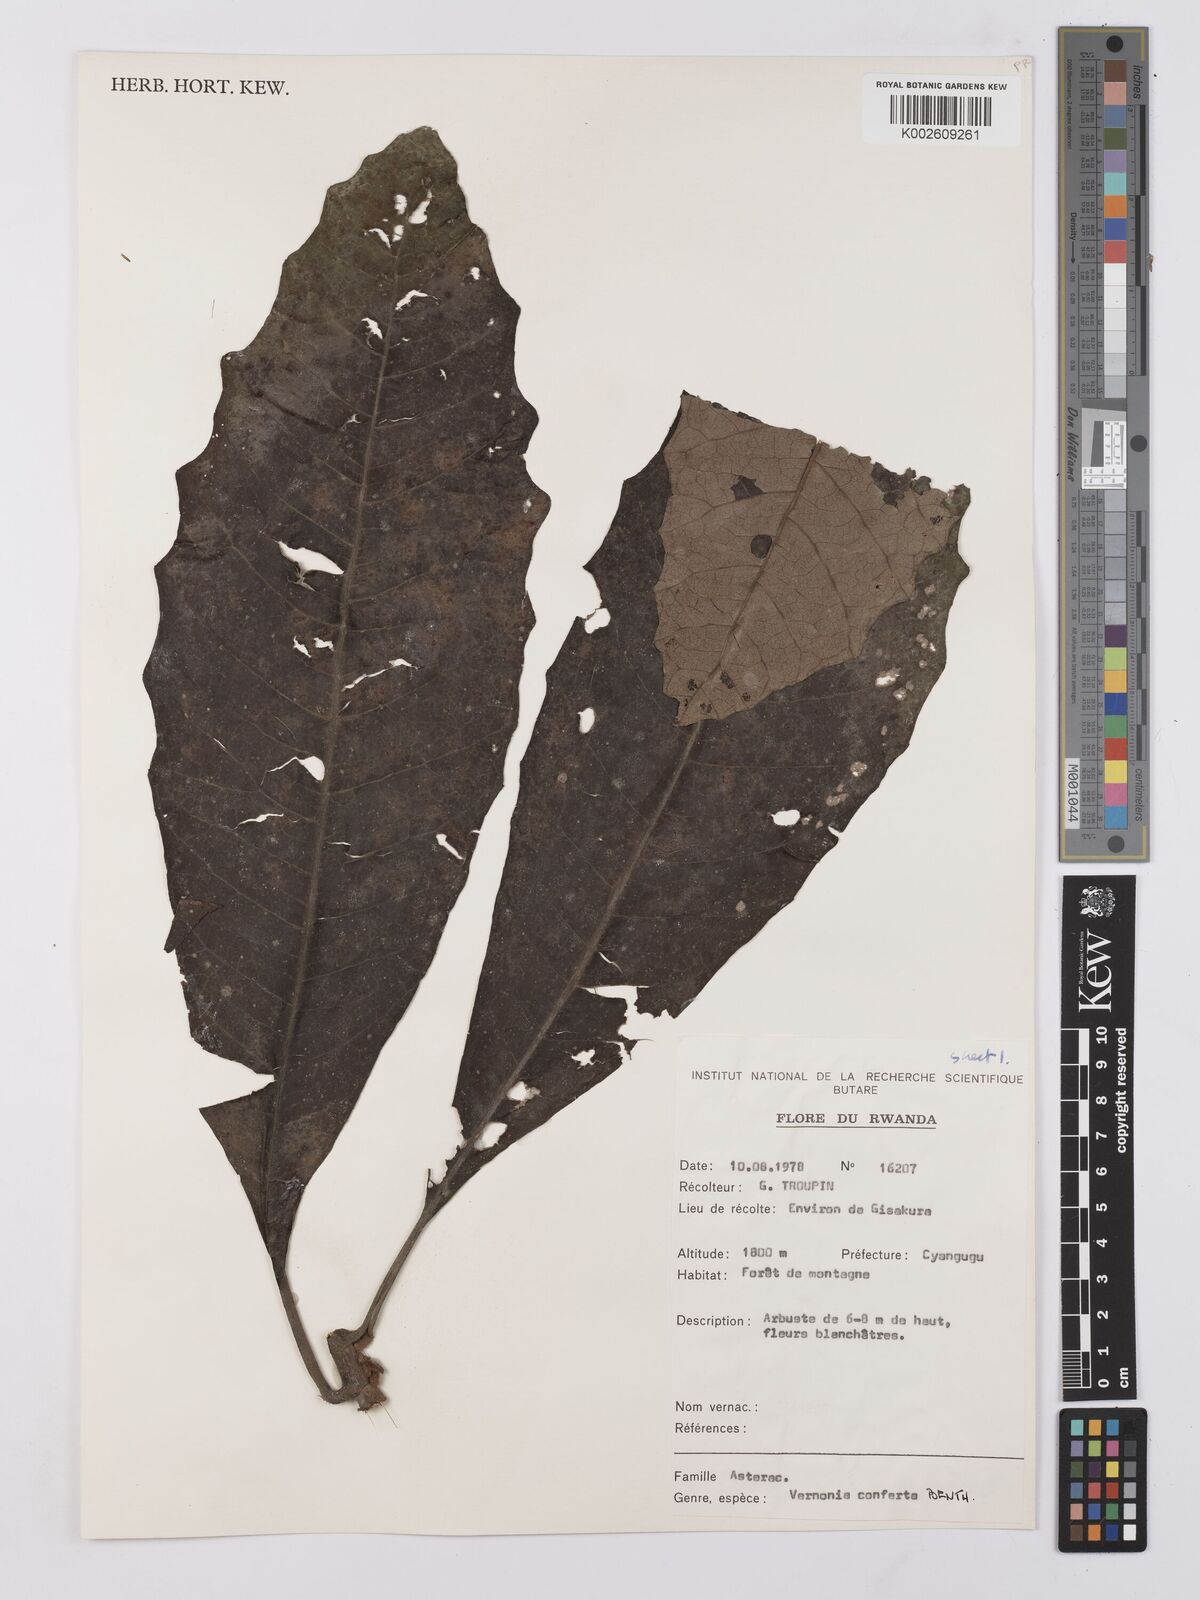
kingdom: Plantae
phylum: Tracheophyta
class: Magnoliopsida
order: Asterales
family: Asteraceae
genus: Monosis
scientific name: Monosis conferta
